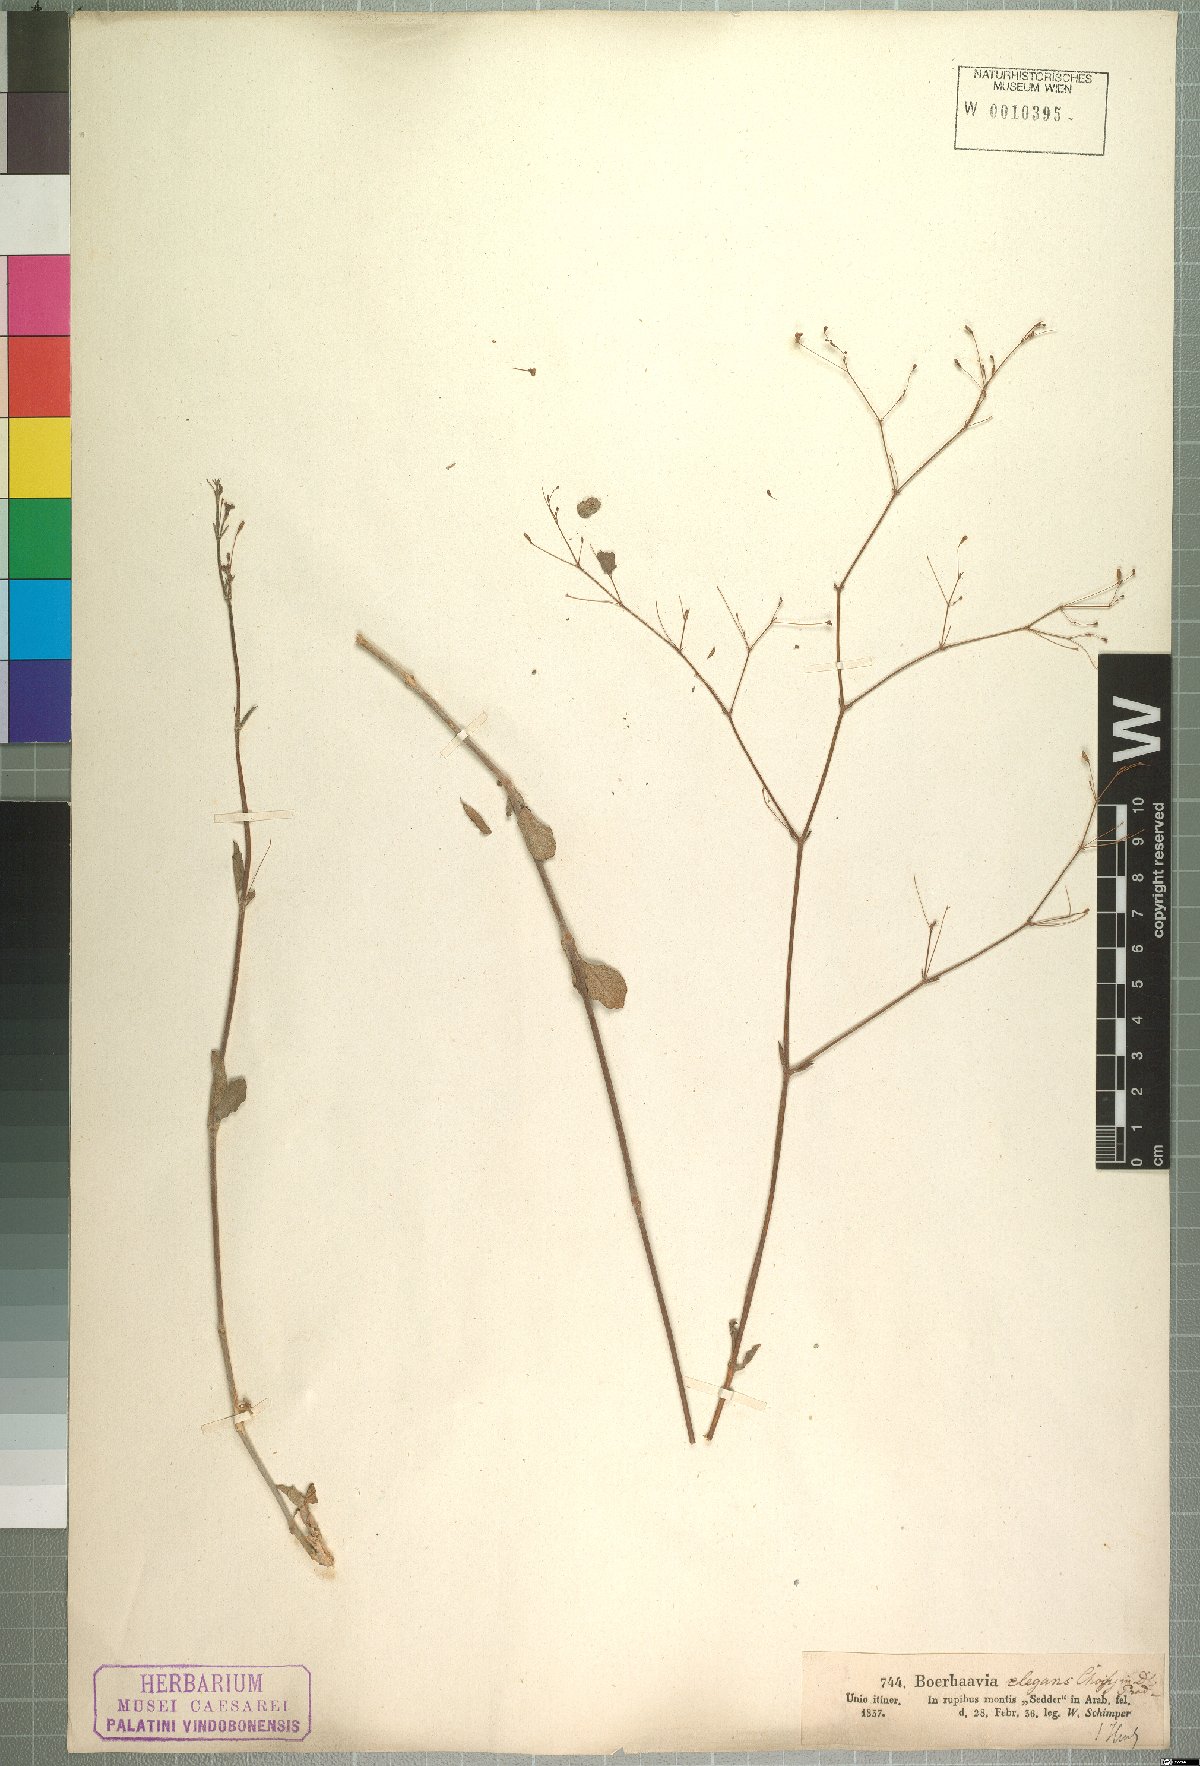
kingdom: Plantae
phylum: Tracheophyta
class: Magnoliopsida
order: Caryophyllales
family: Nyctaginaceae
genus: Boerhavia
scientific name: Boerhavia elegans
